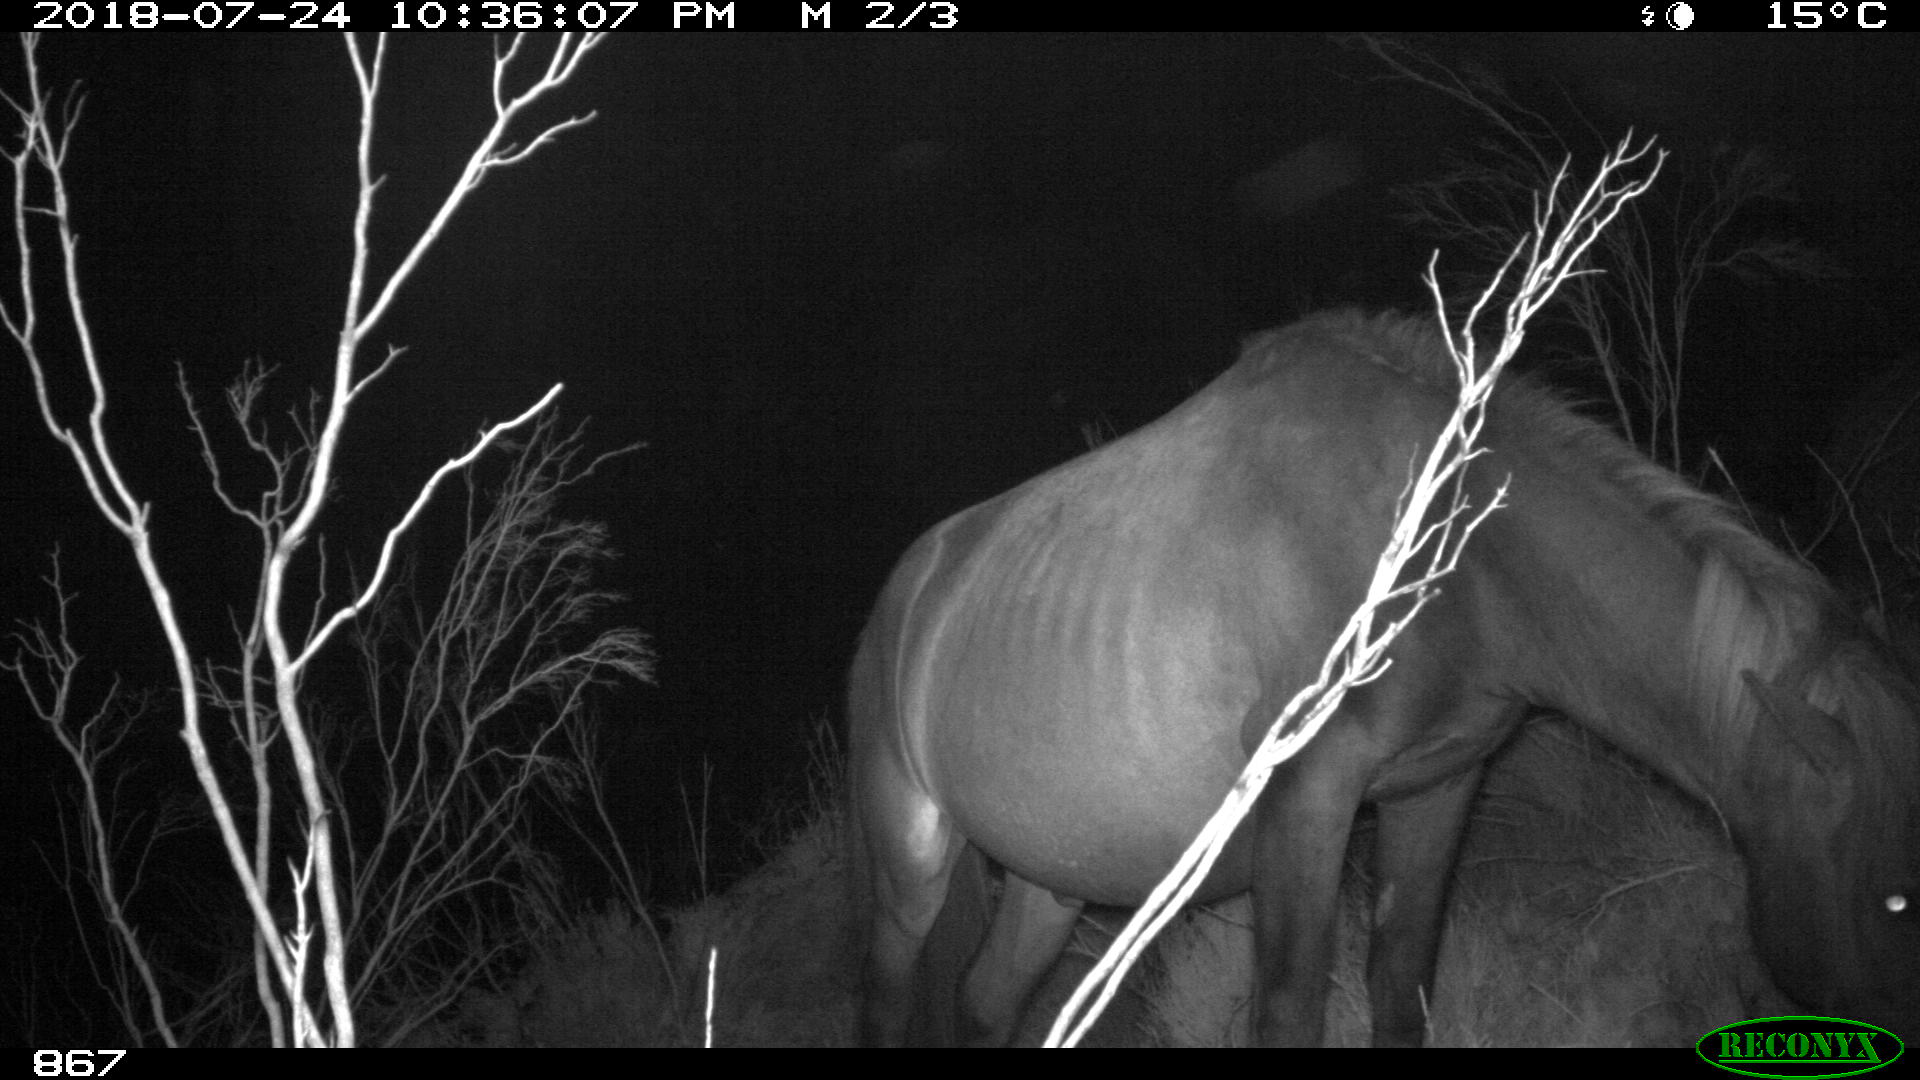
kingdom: Animalia
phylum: Chordata
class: Mammalia
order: Perissodactyla
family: Equidae
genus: Equus
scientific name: Equus caballus
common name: Horse
